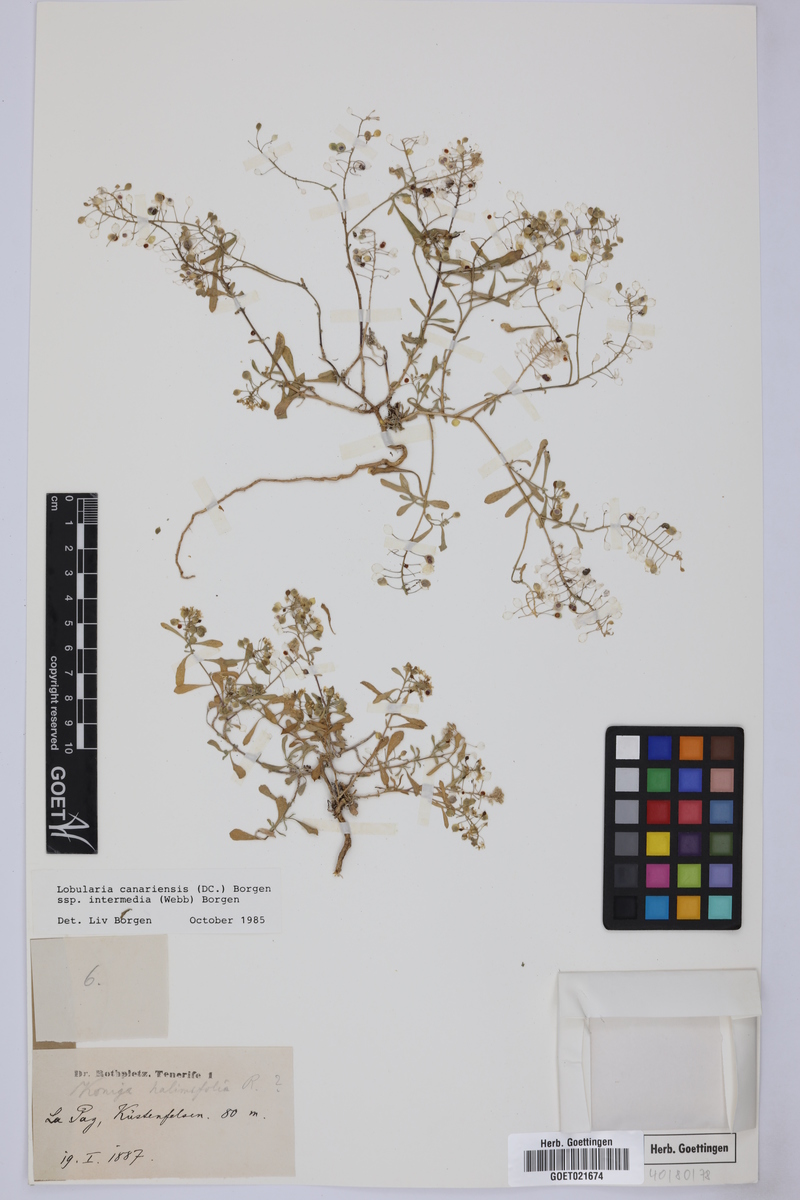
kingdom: Plantae
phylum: Tracheophyta
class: Magnoliopsida
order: Brassicales
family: Brassicaceae
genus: Lobularia
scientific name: Lobularia canariensis
